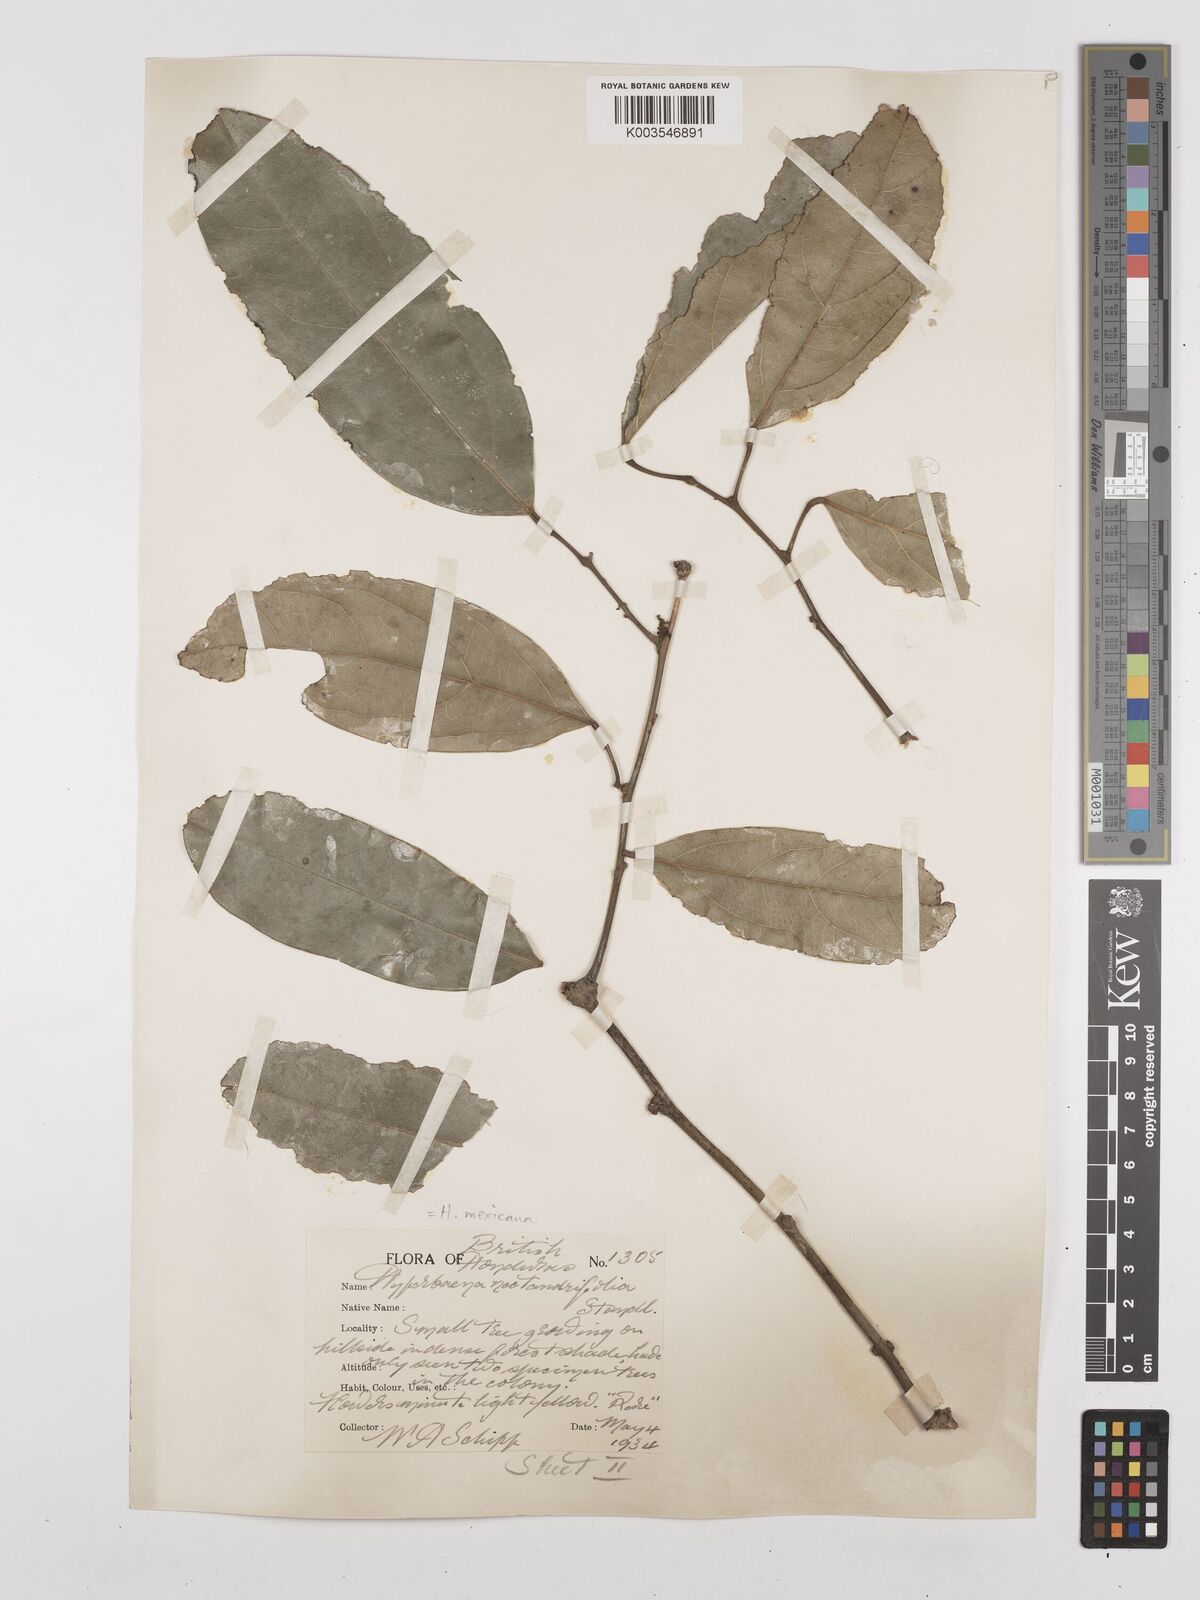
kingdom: Plantae
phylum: Tracheophyta
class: Magnoliopsida
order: Ranunculales
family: Menispermaceae
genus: Hyperbaena
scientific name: Hyperbaena mexicana
